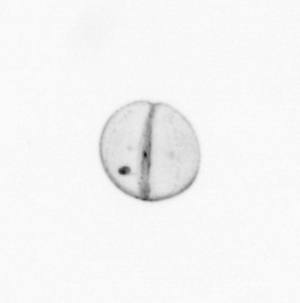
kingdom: Animalia
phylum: Arthropoda
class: Copepoda
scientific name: Copepoda
